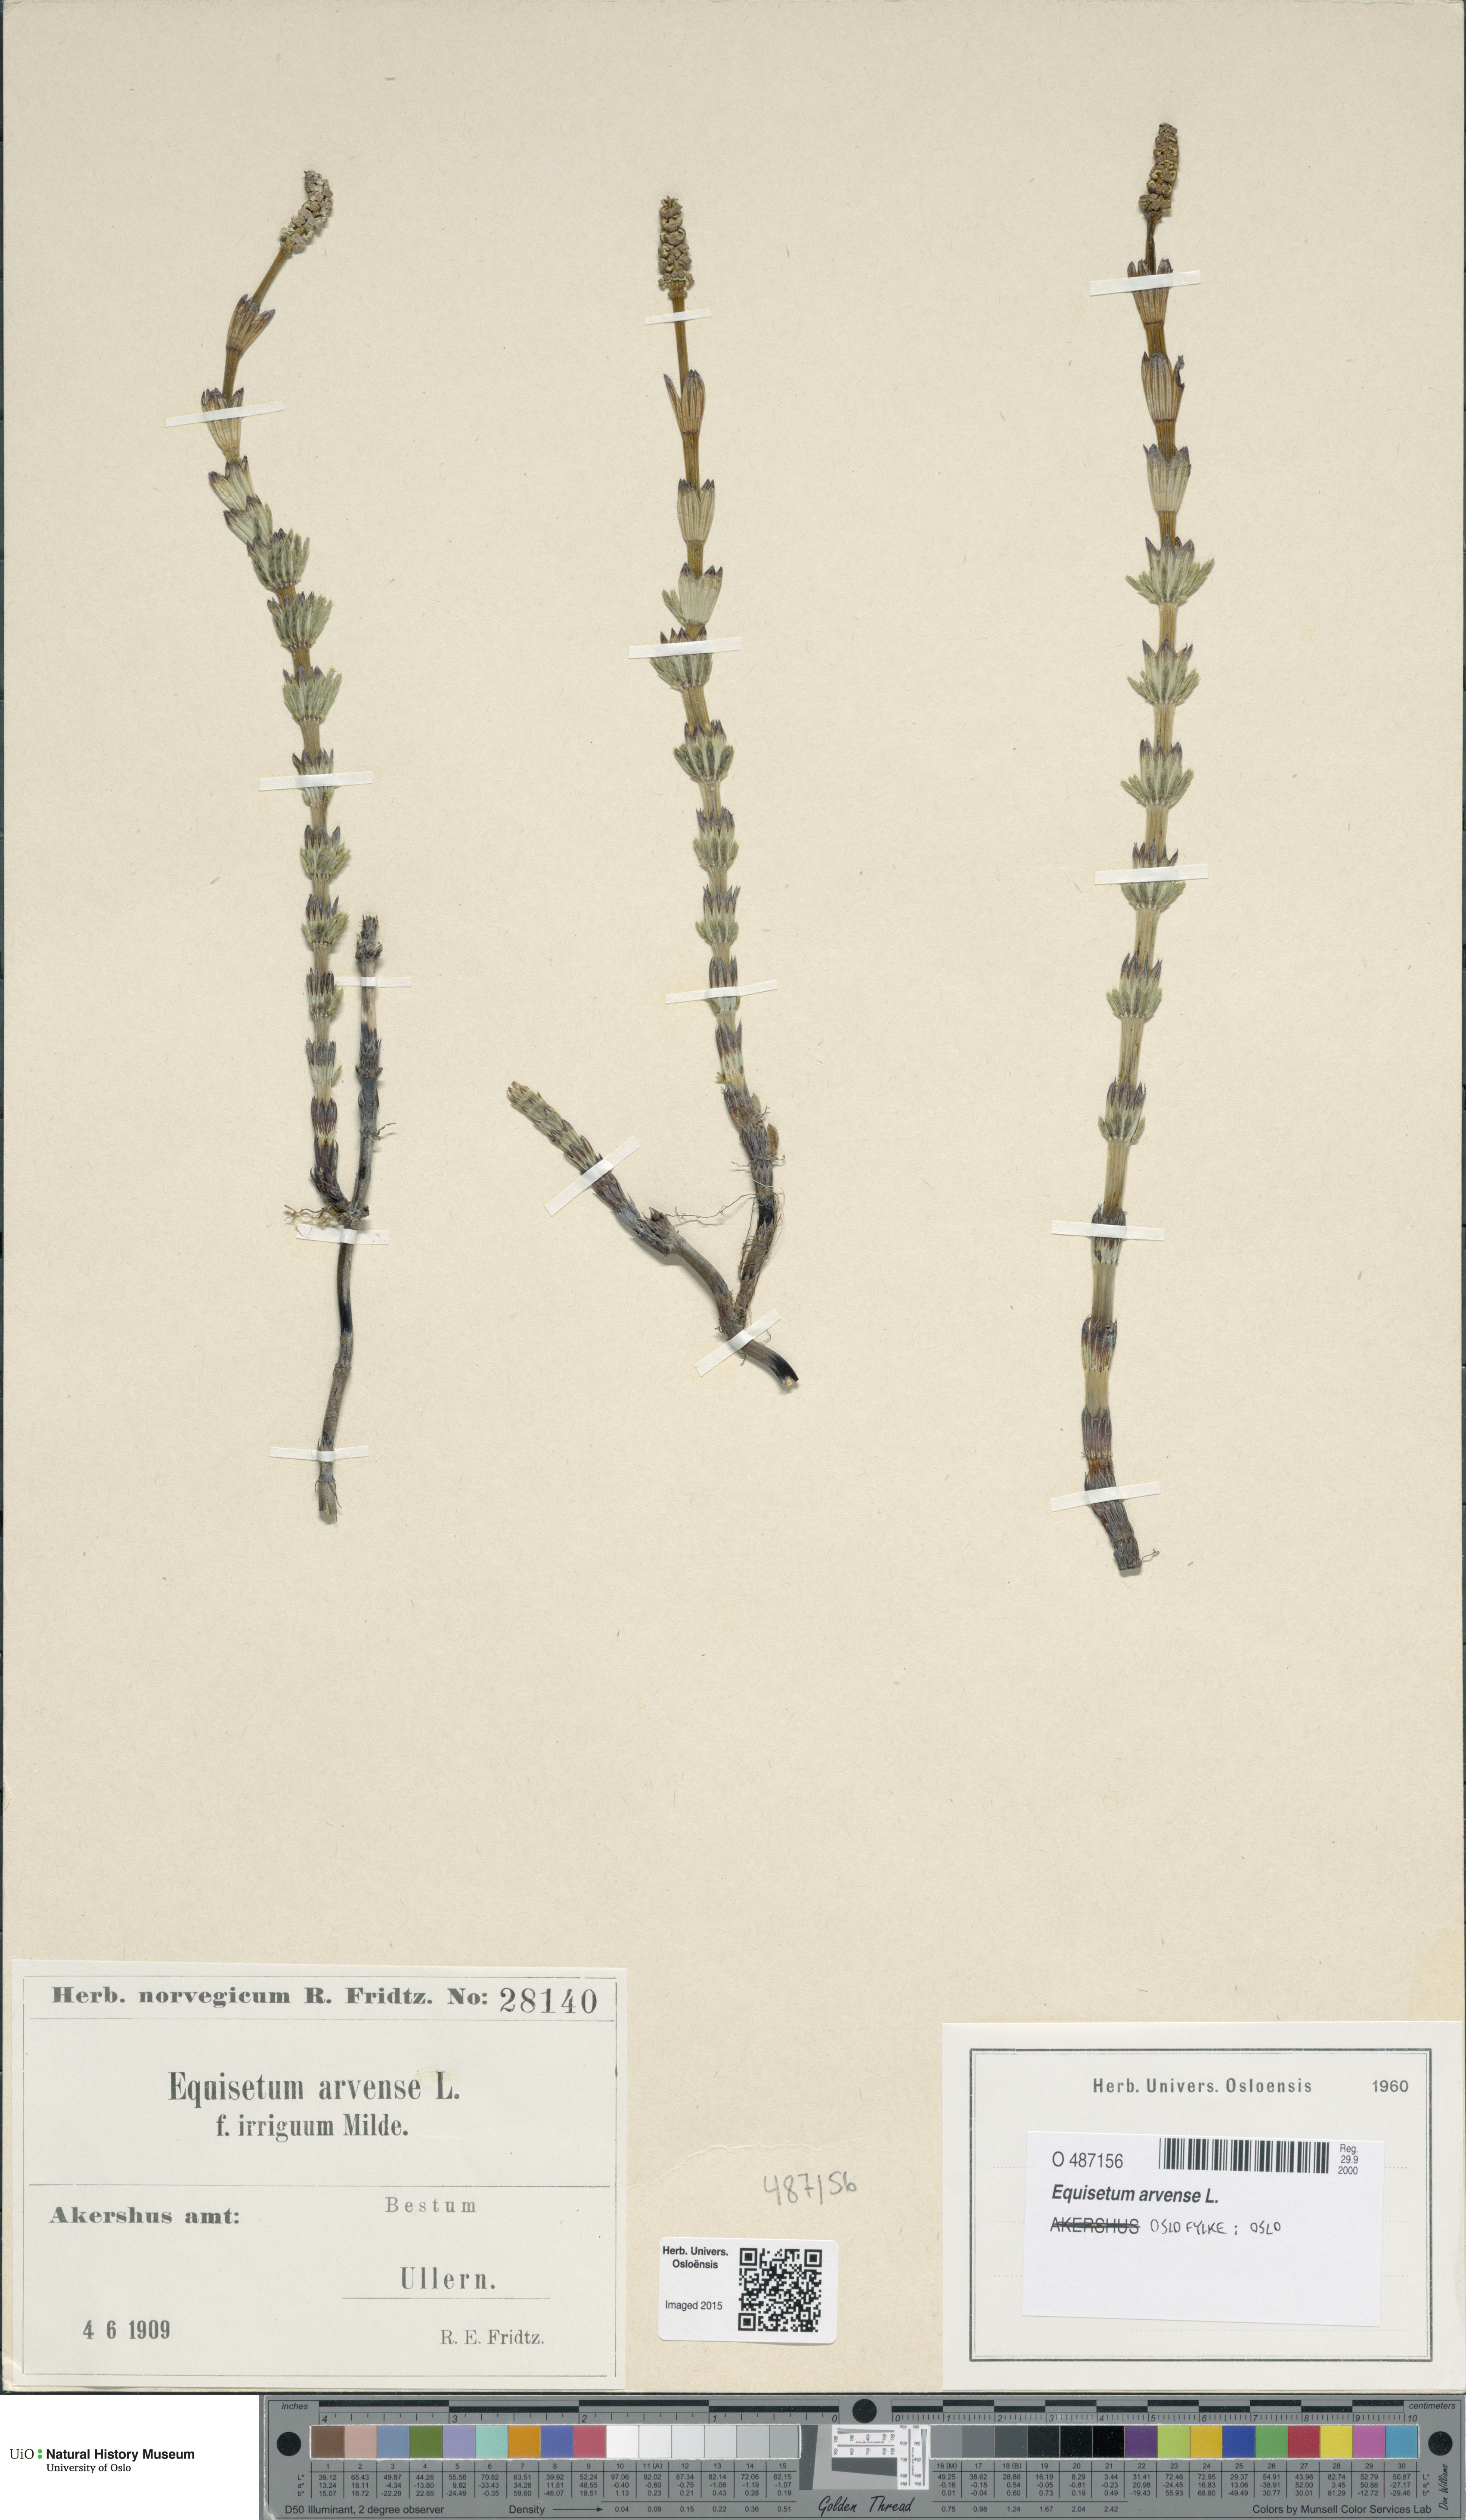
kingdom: Plantae
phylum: Tracheophyta
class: Polypodiopsida
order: Equisetales
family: Equisetaceae
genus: Equisetum
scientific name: Equisetum arvense
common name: Field horsetail
